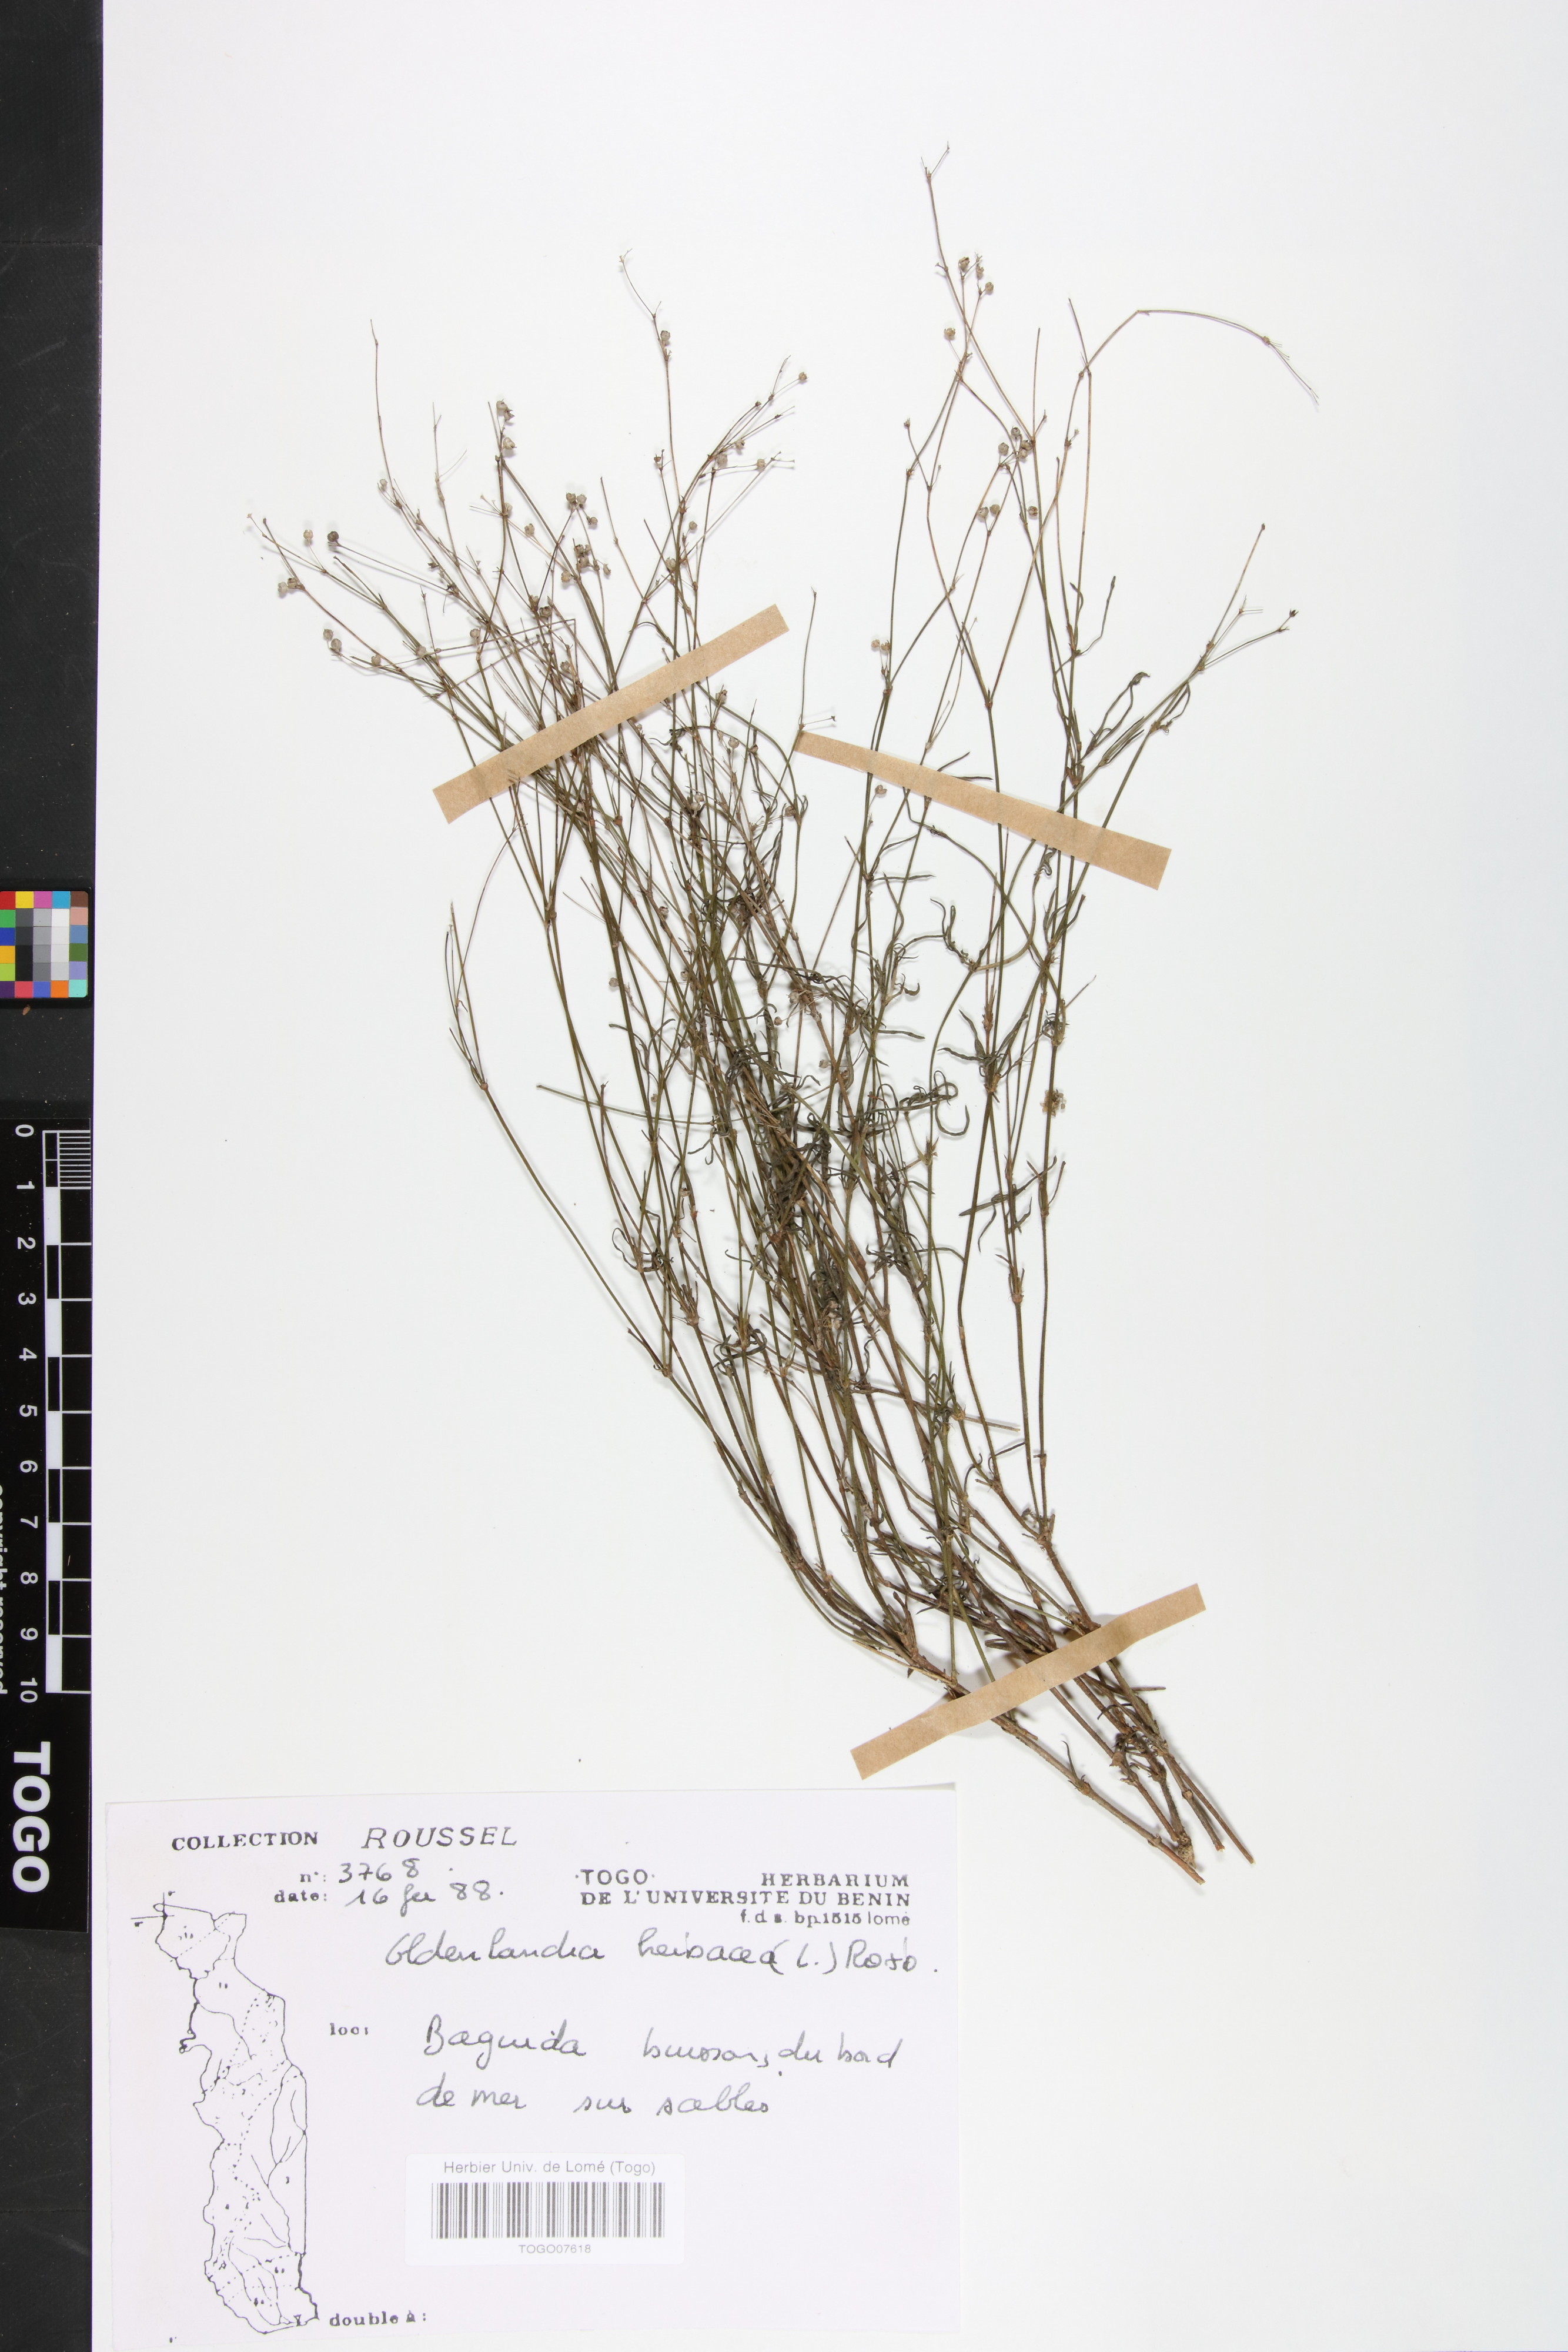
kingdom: Plantae
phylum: Tracheophyta
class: Magnoliopsida
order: Gentianales
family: Rubiaceae
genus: Oldenlandia
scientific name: Oldenlandia herbacea
